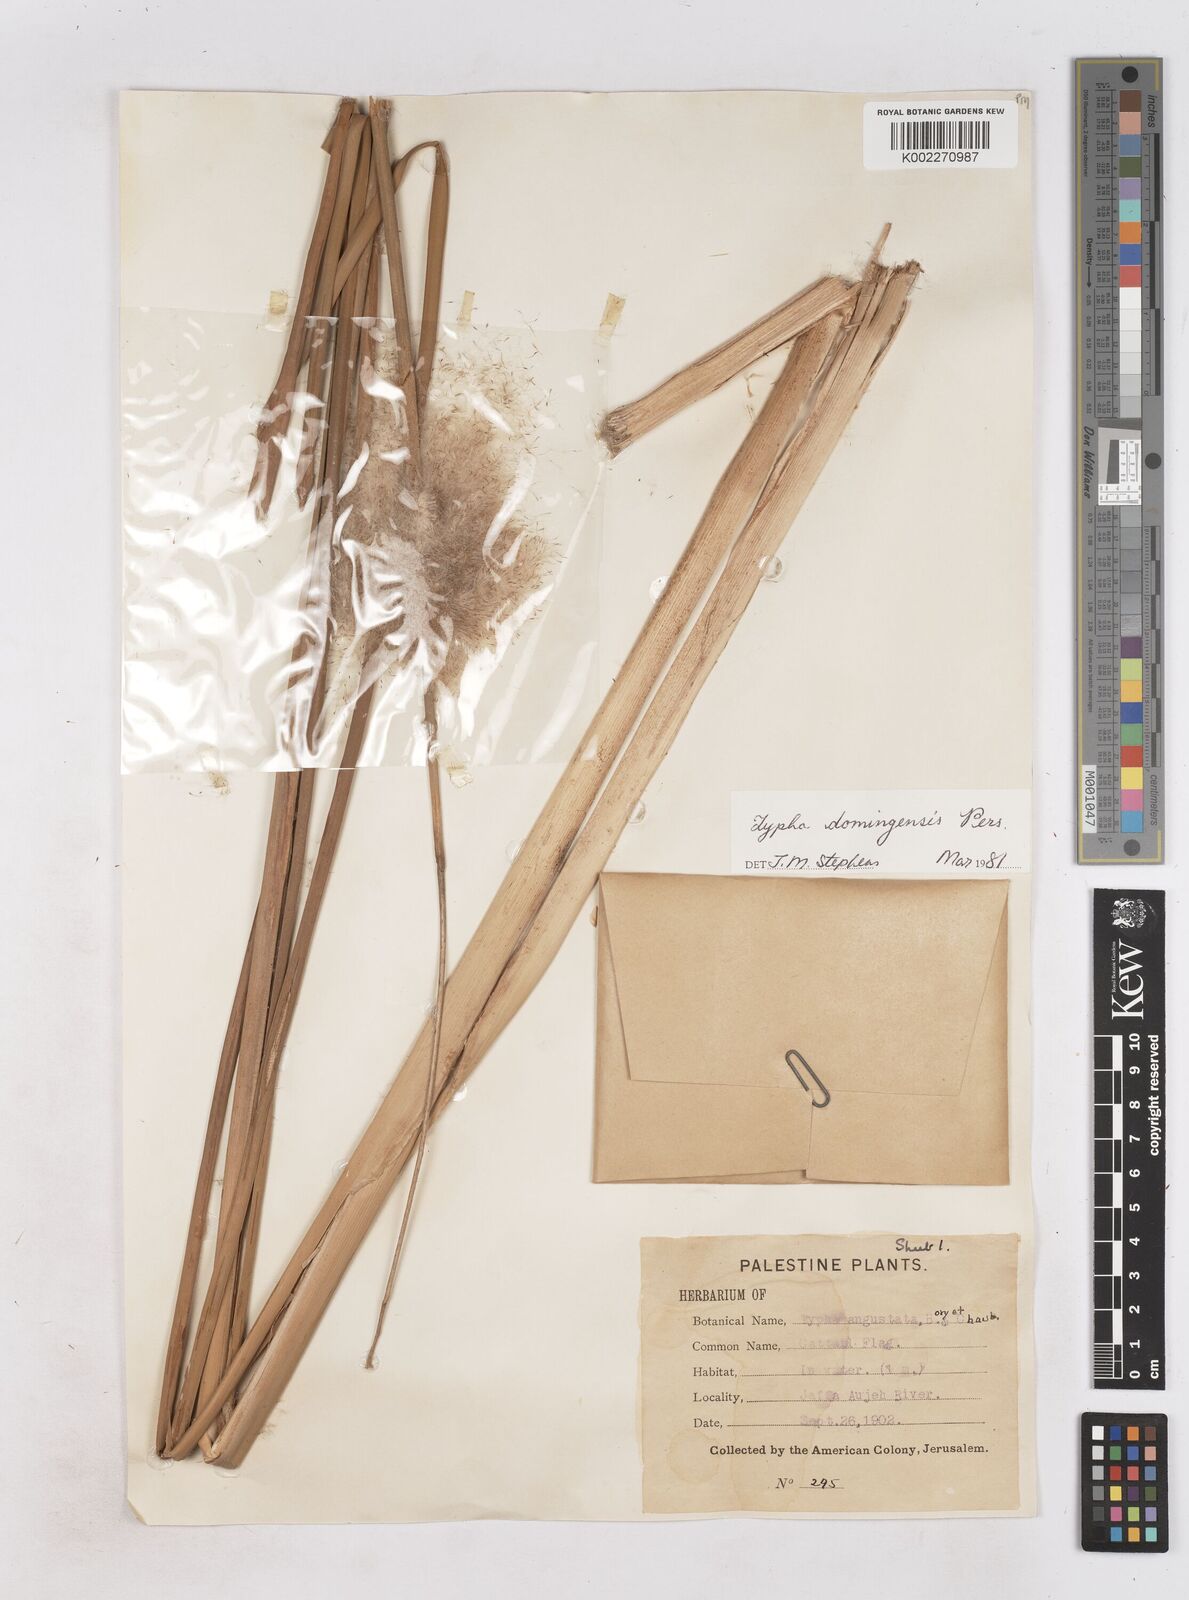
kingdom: Plantae
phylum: Tracheophyta
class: Liliopsida
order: Poales
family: Typhaceae
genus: Typha
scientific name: Typha domingensis
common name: Southern cattail
